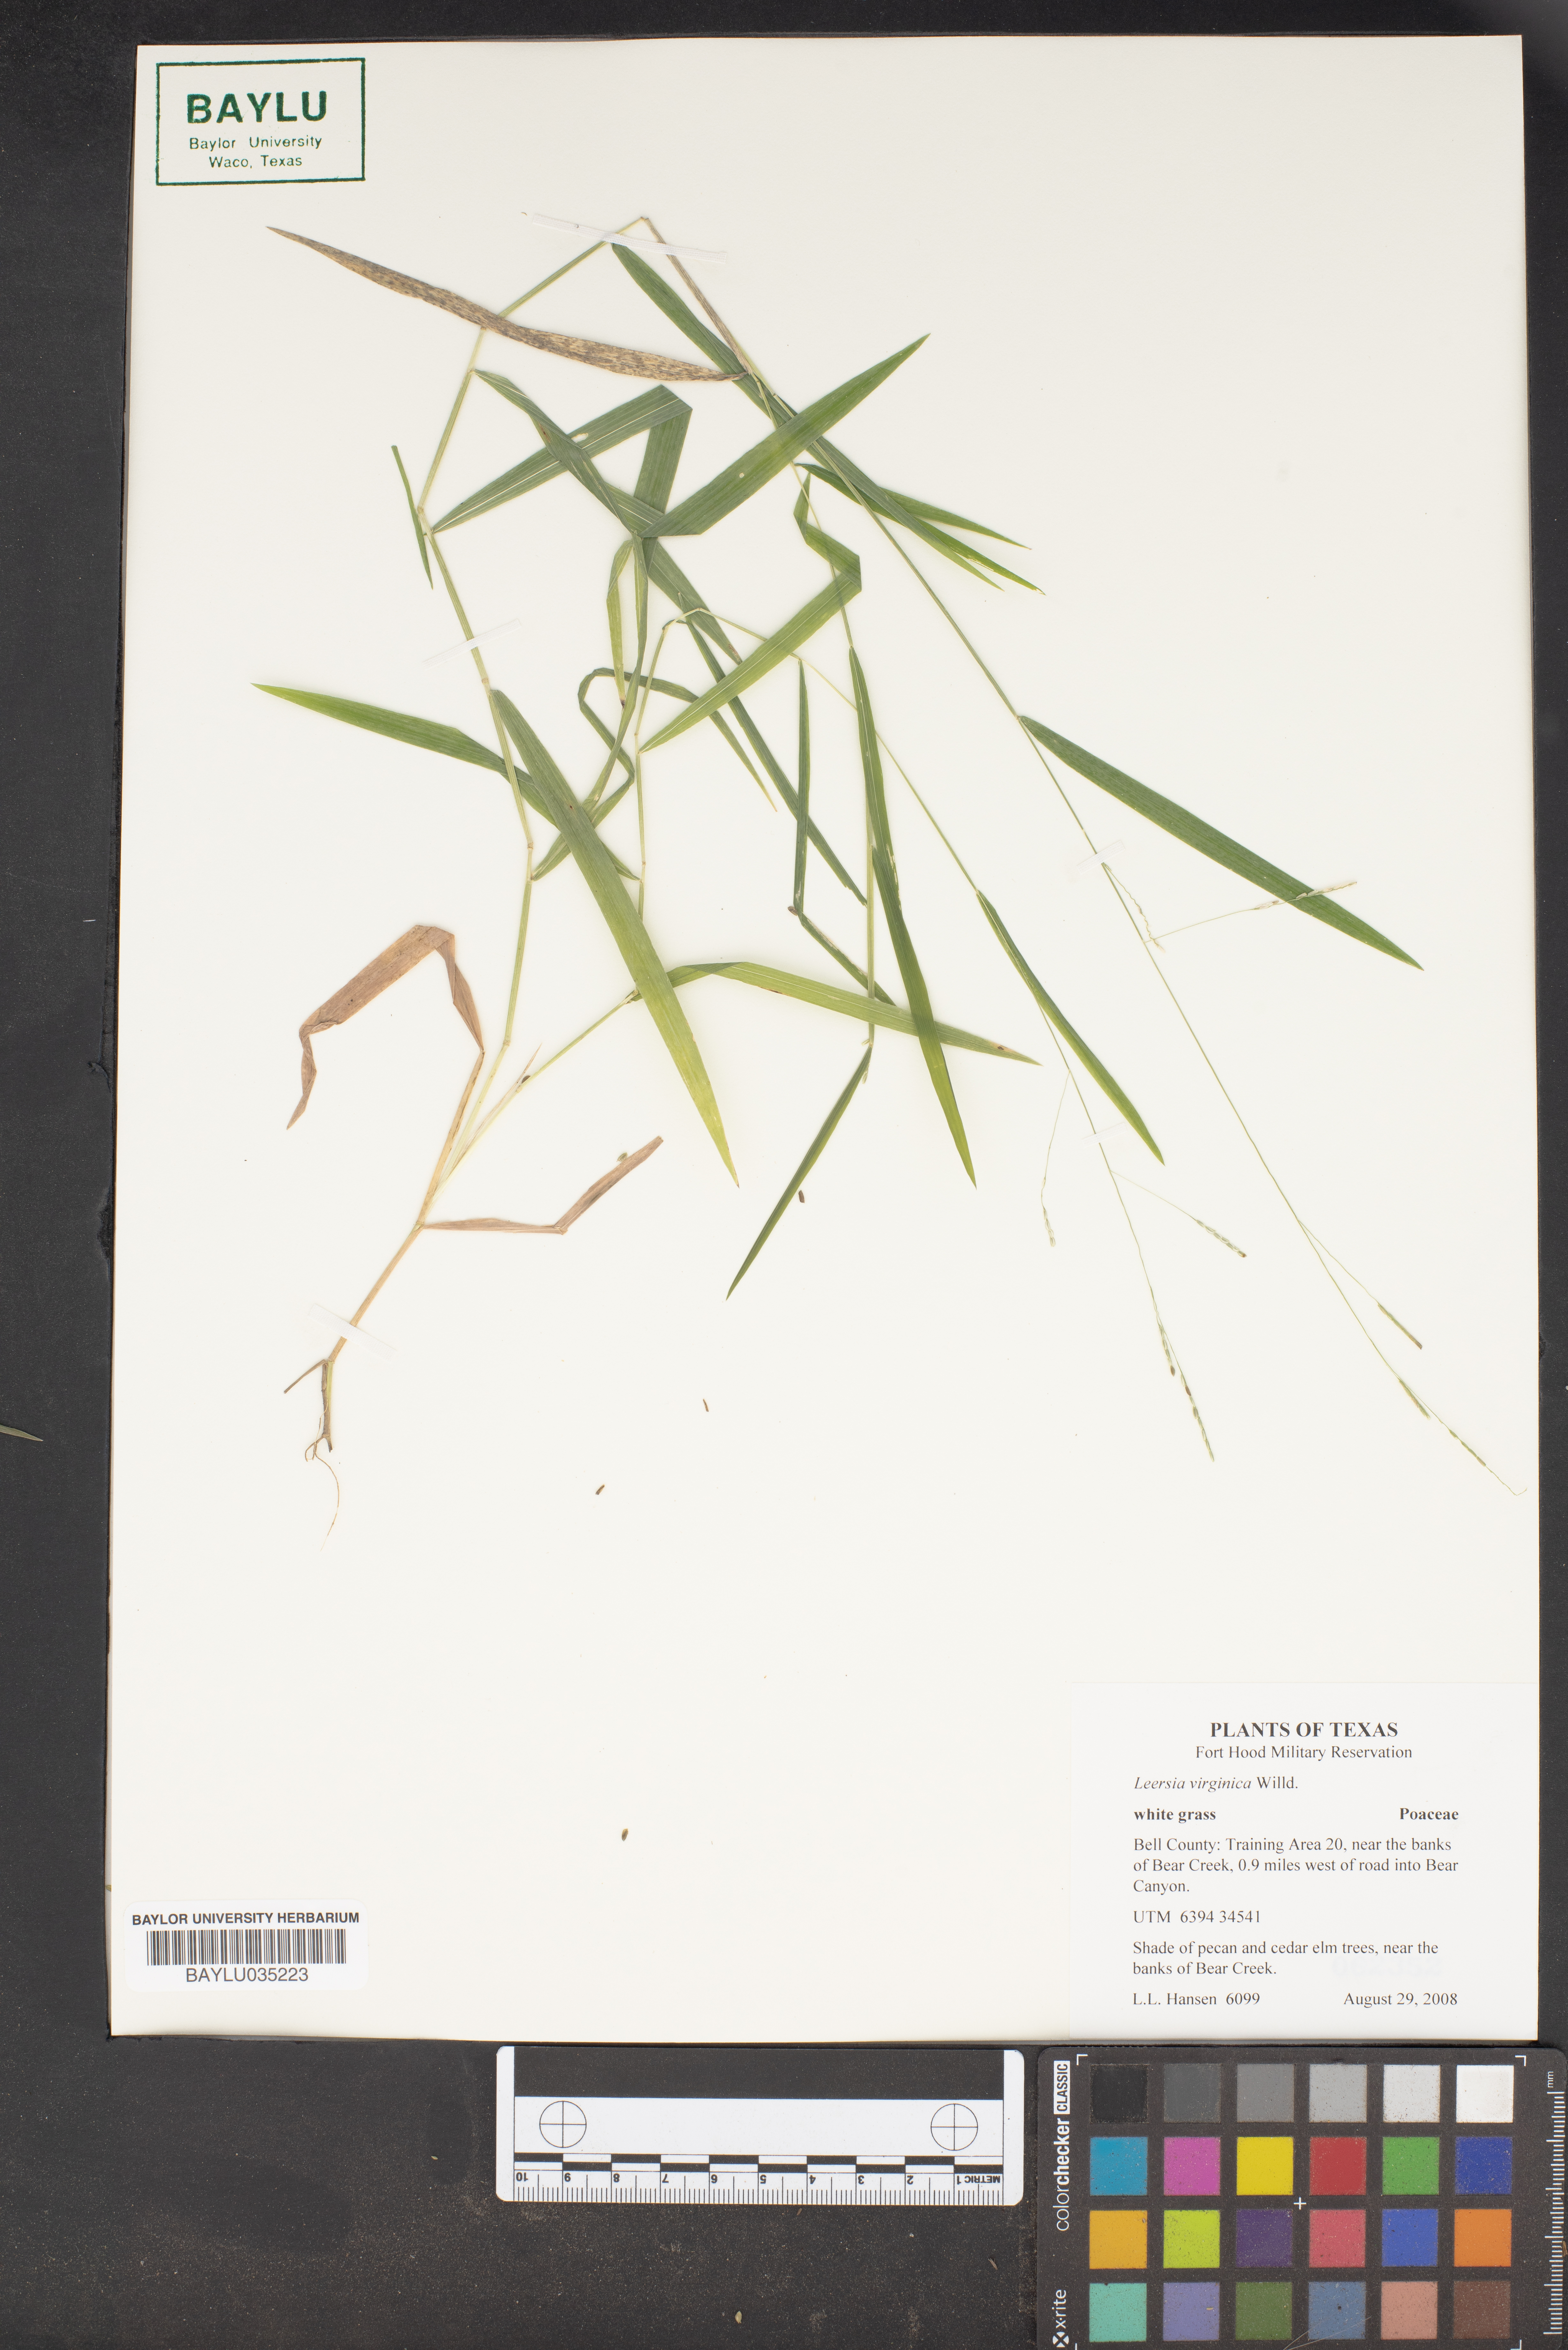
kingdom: Plantae
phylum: Tracheophyta
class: Liliopsida
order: Poales
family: Poaceae
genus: Leersia
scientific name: Leersia virginica
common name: White cutgrass
